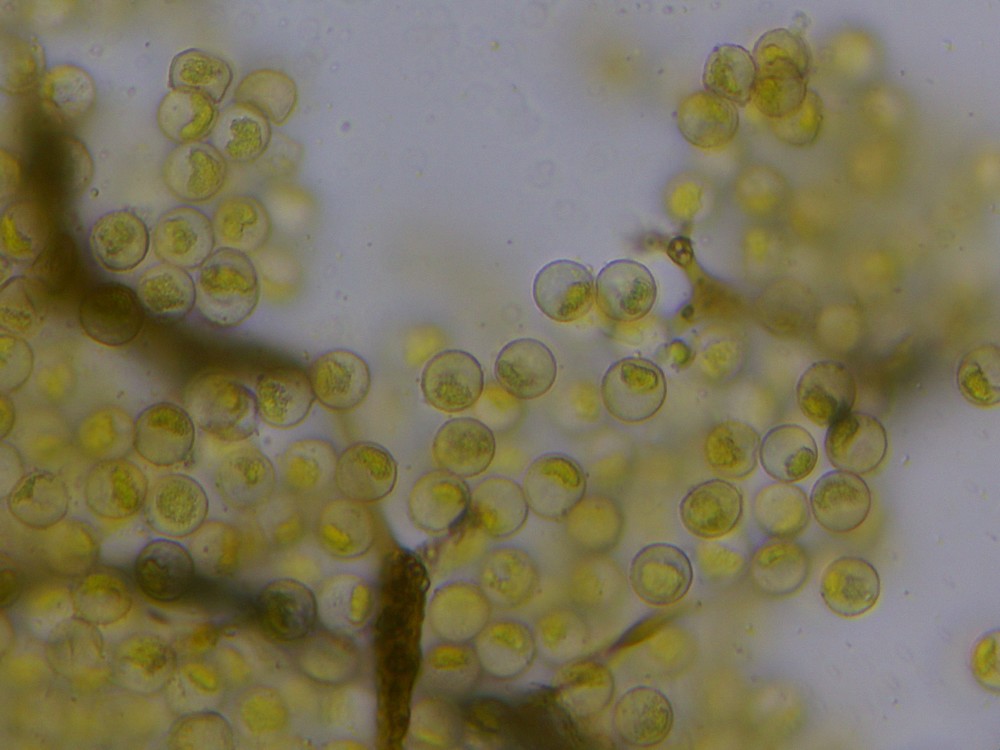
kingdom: Protozoa
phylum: Mycetozoa
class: Myxomycetes
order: Cribrariales
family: Cribrariaceae
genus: Cribraria
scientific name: Cribraria aurantiaca
